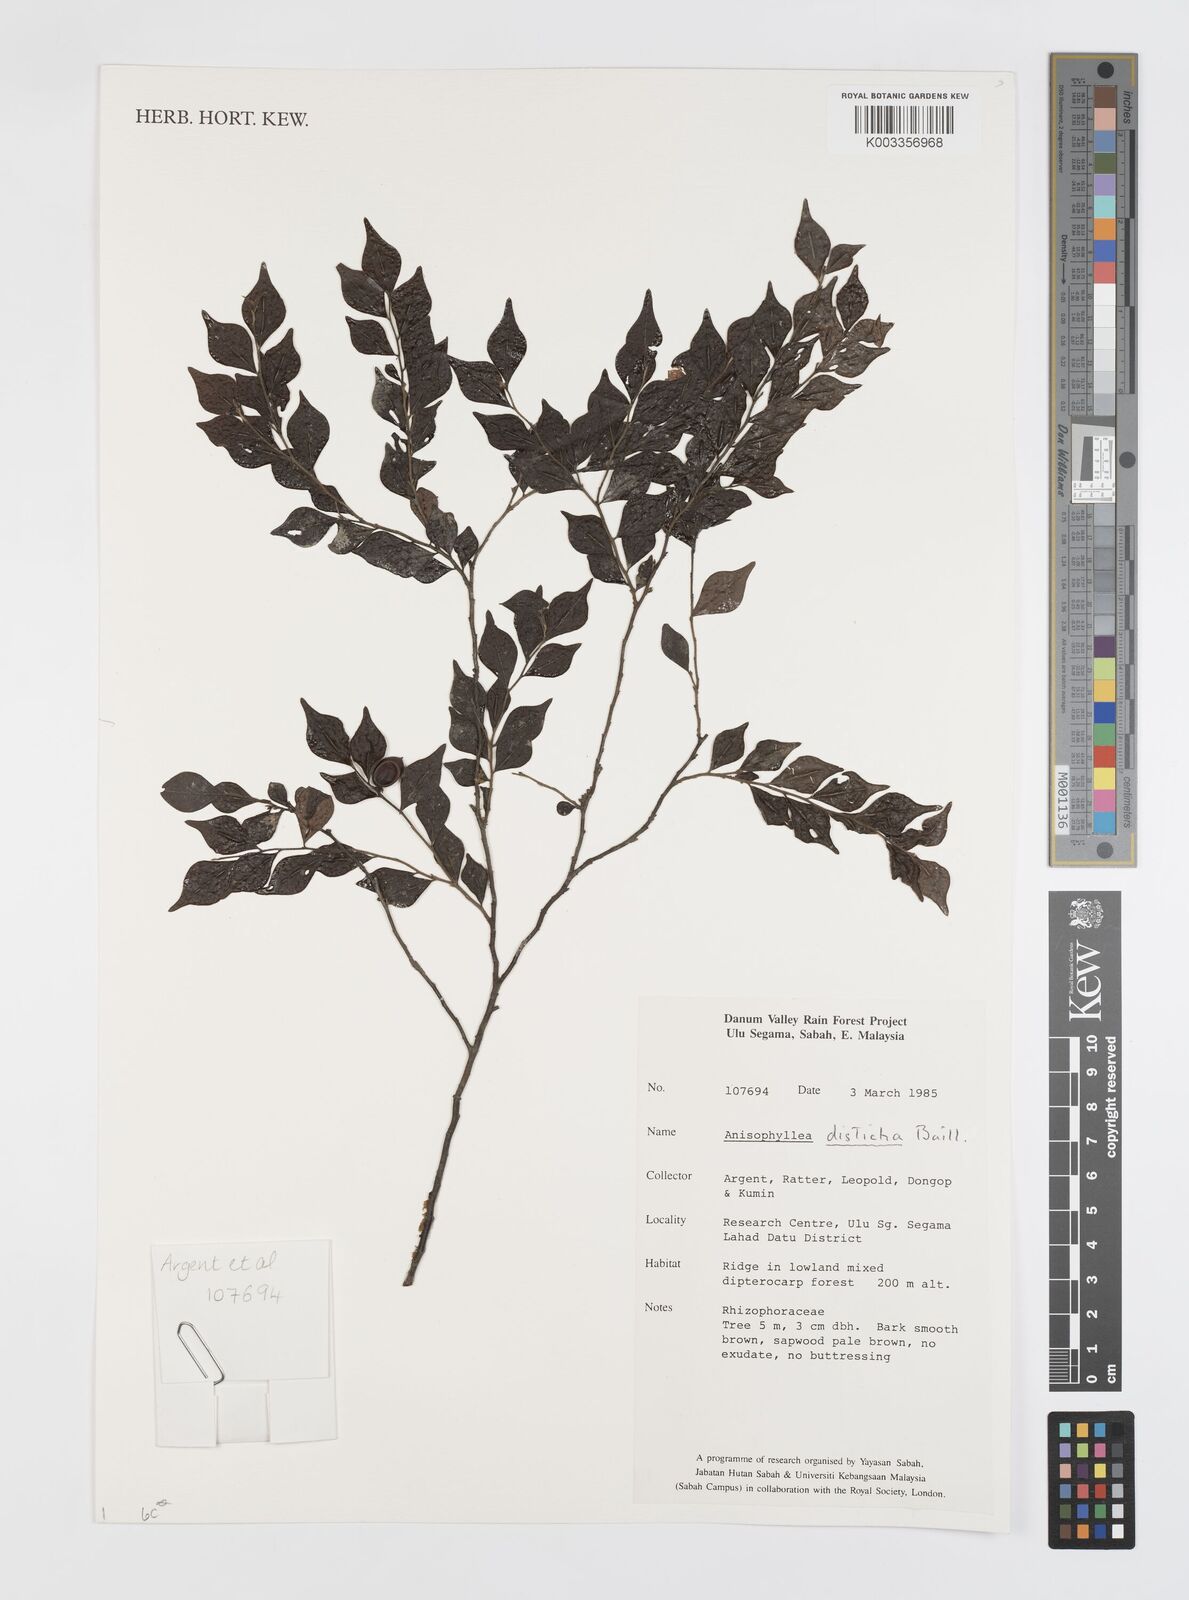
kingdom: Plantae
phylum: Tracheophyta
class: Magnoliopsida
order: Cucurbitales
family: Anisophylleaceae
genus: Anisophyllea
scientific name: Anisophyllea disticha
